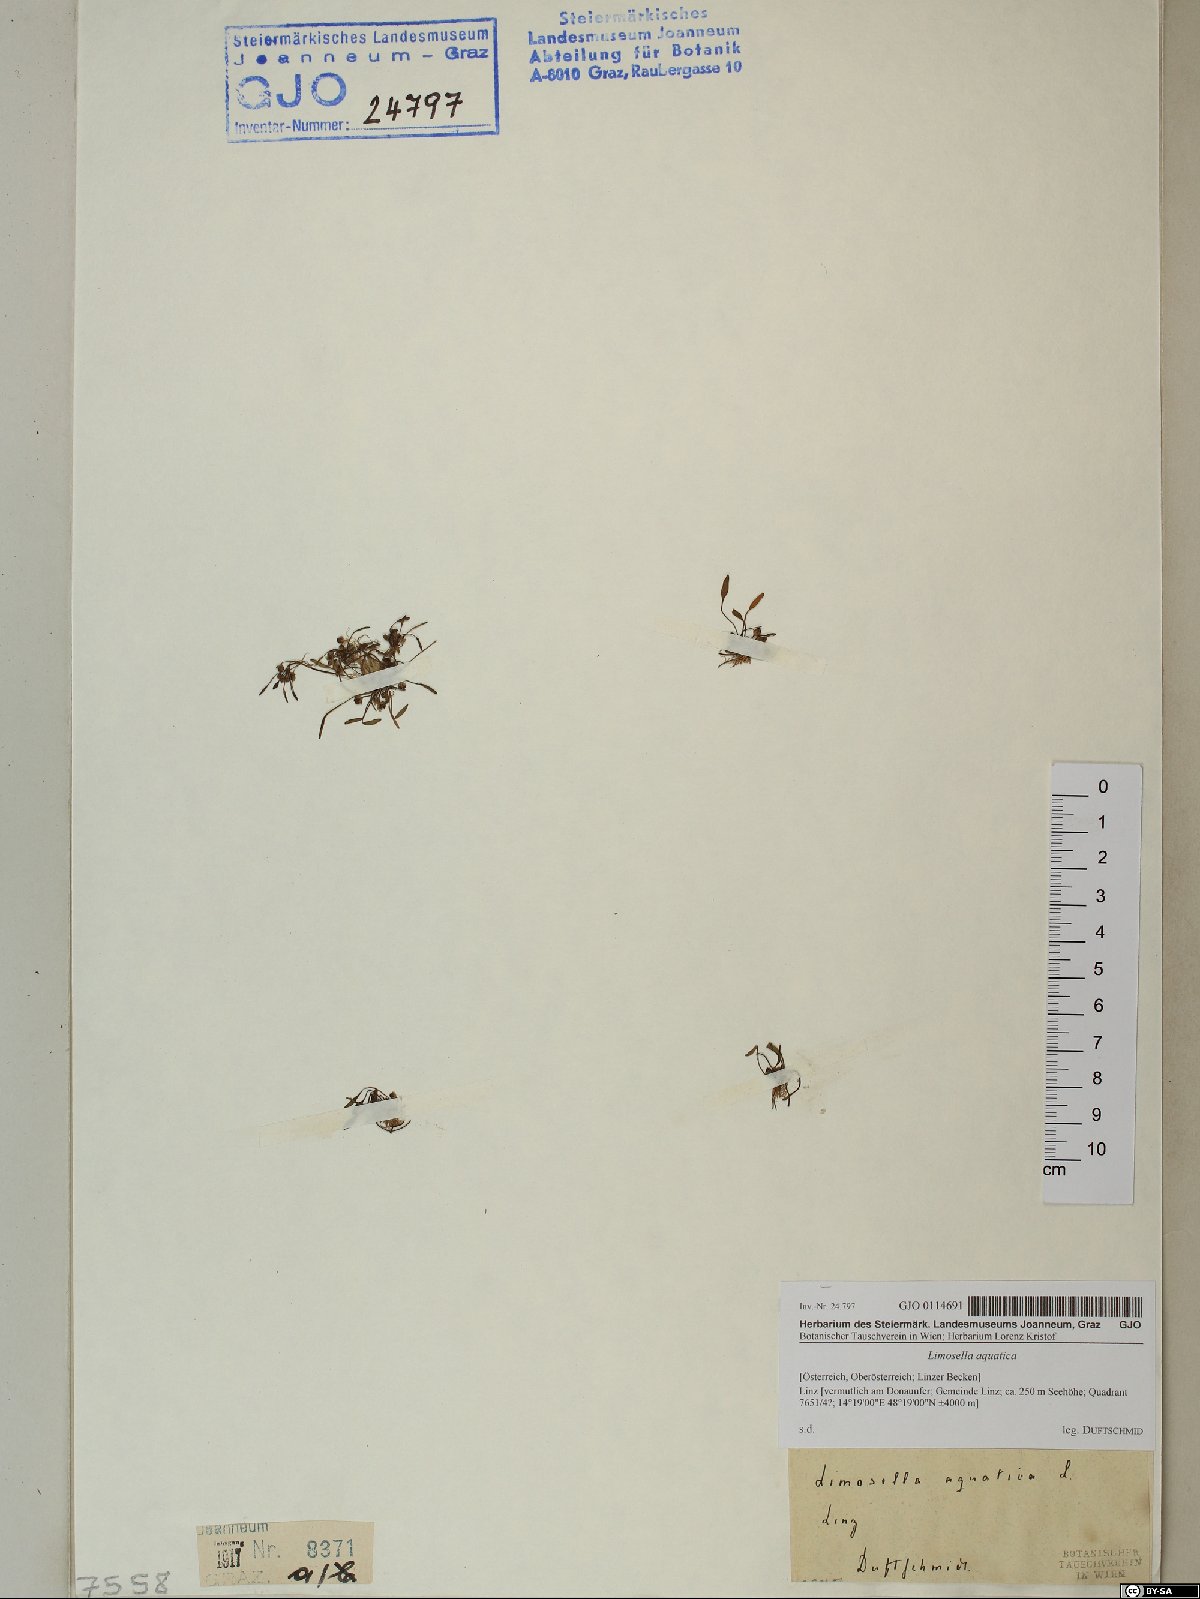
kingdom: Plantae
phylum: Tracheophyta
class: Magnoliopsida
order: Lamiales
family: Scrophulariaceae
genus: Limosella
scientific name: Limosella aquatica
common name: Mudwort
